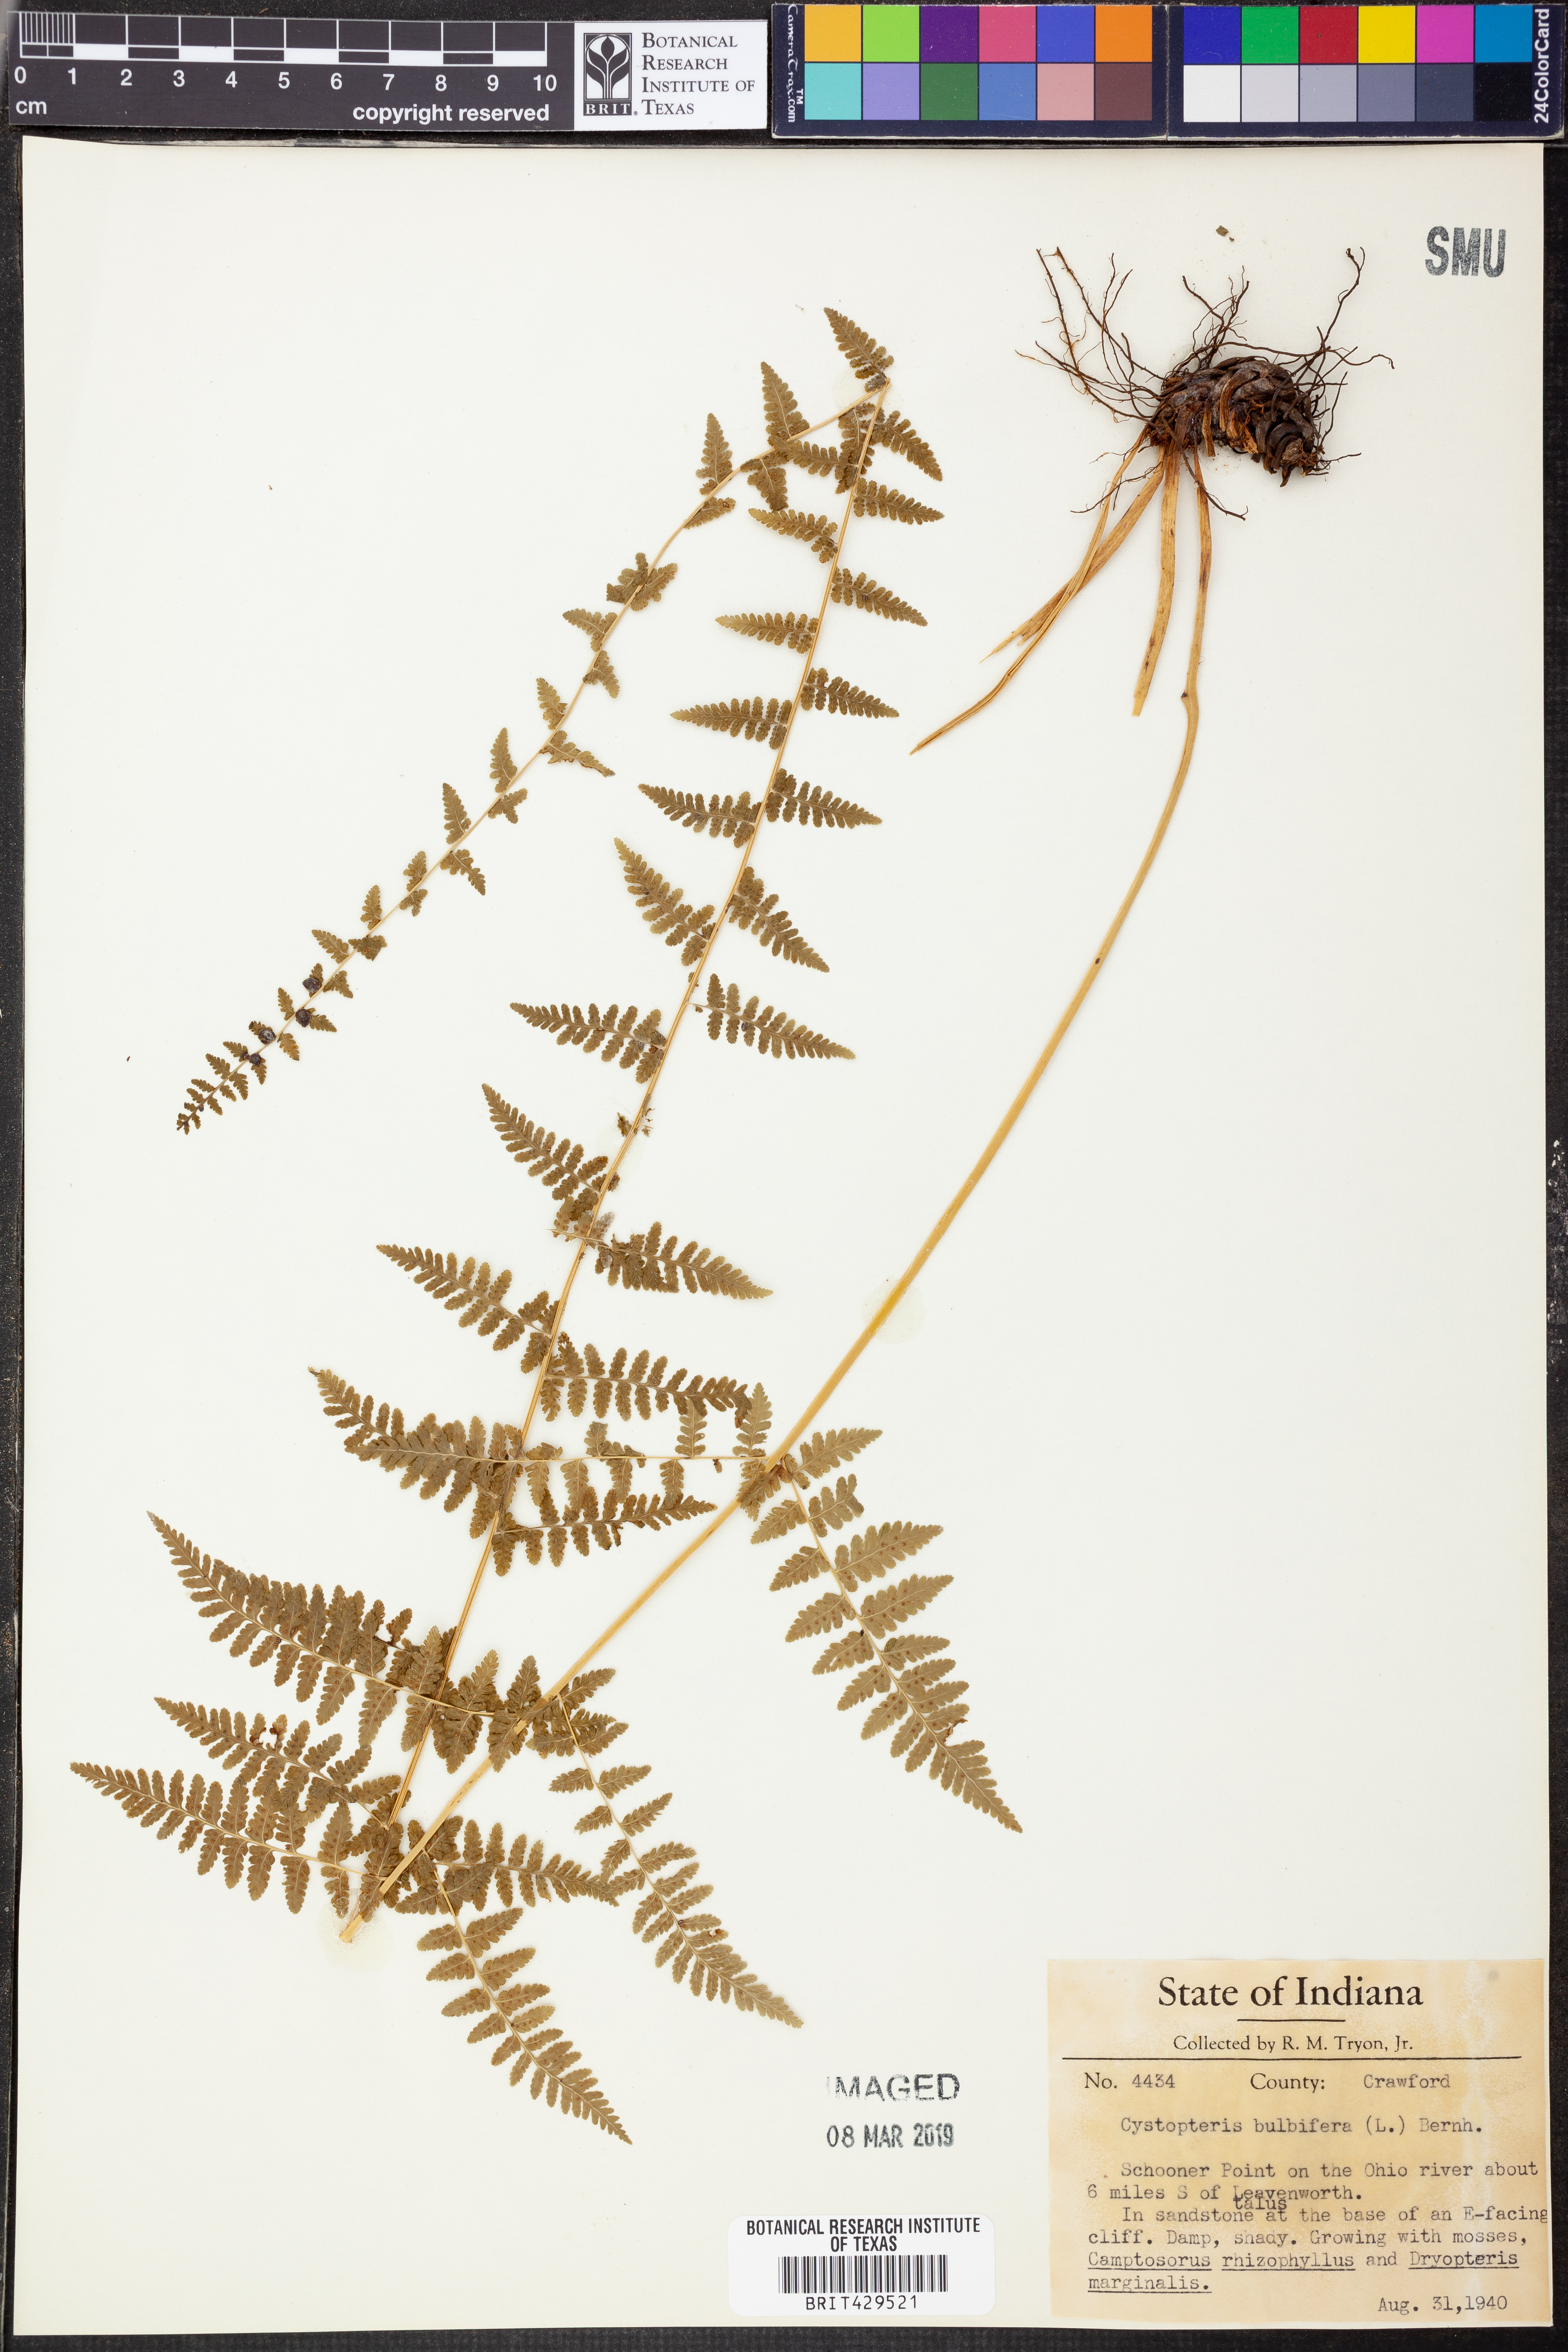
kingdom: Plantae
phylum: Tracheophyta
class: Polypodiopsida
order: Polypodiales
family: Cystopteridaceae
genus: Cystopteris
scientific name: Cystopteris bulbifera
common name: Bulblet bladder fern
